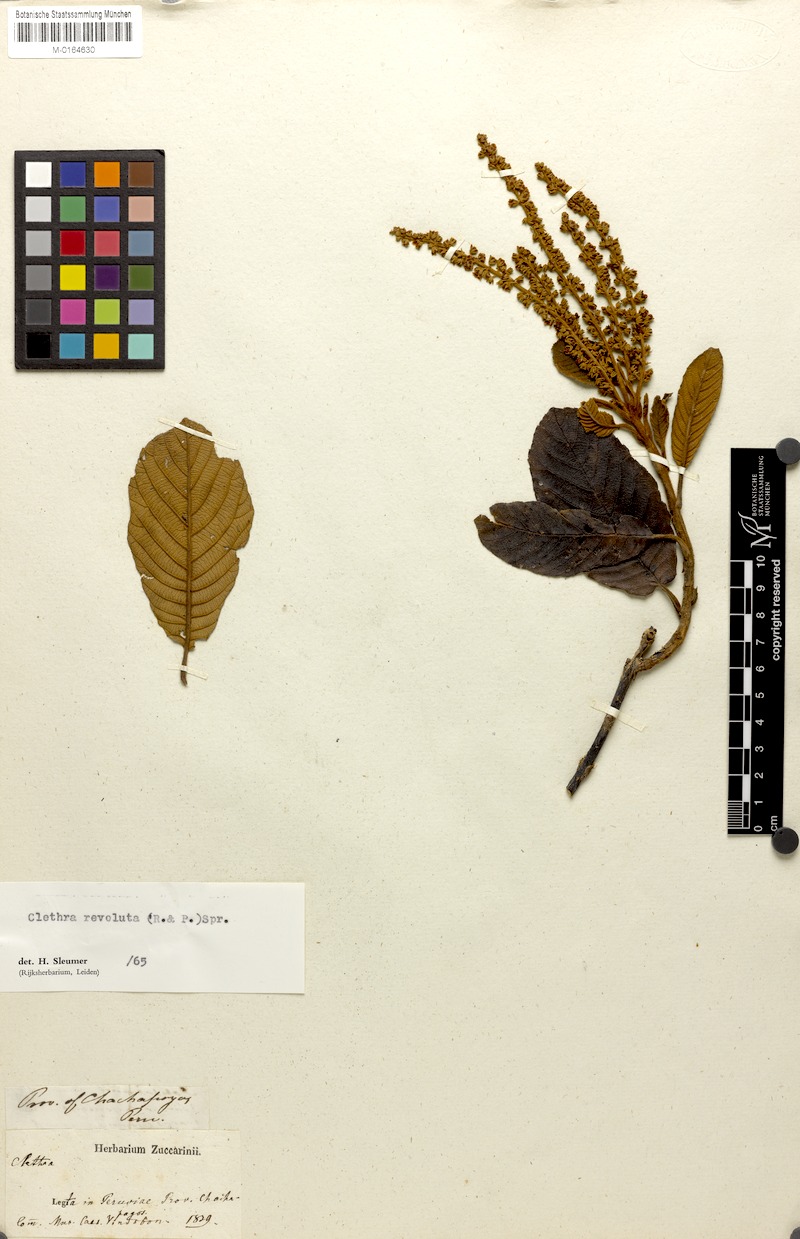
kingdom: Plantae
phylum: Tracheophyta
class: Magnoliopsida
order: Ericales
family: Clethraceae
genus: Clethra
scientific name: Clethra revoluta
